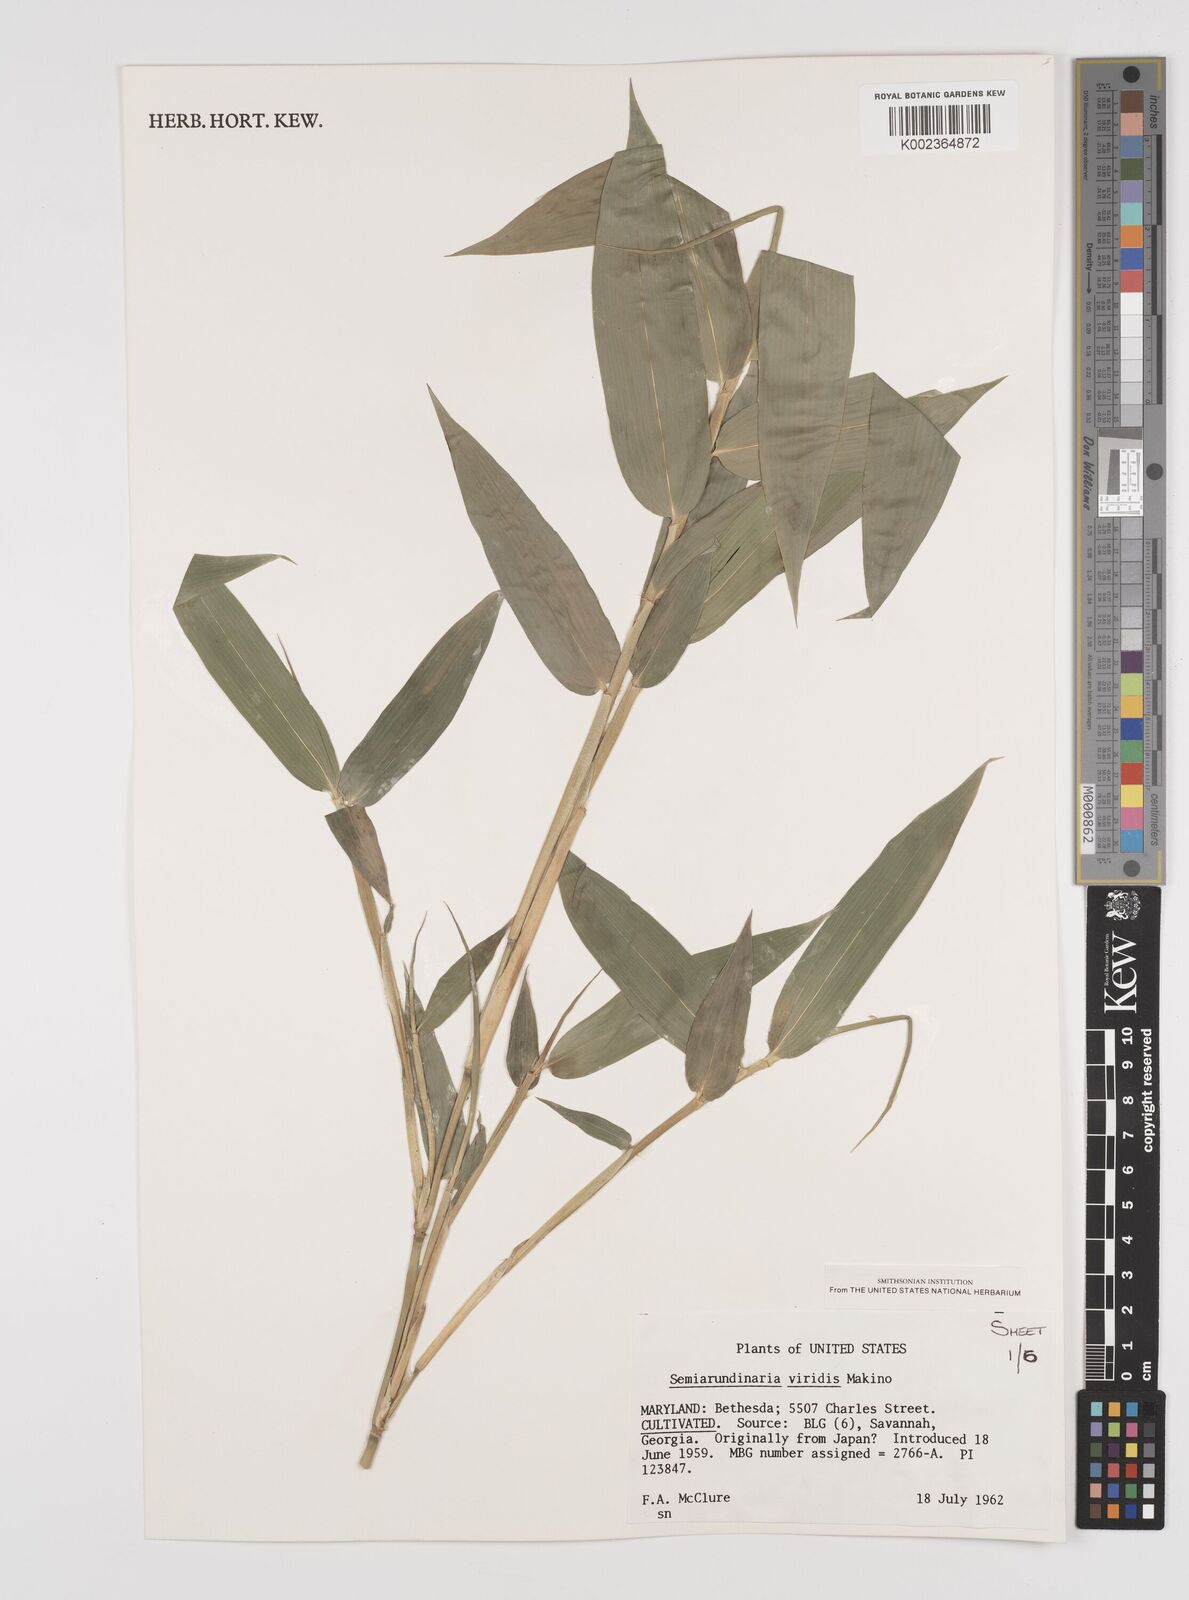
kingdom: Plantae
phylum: Tracheophyta
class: Liliopsida
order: Poales
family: Poaceae
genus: Semiarundinaria
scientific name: Semiarundinaria fastuosa
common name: Narihira bamboo
